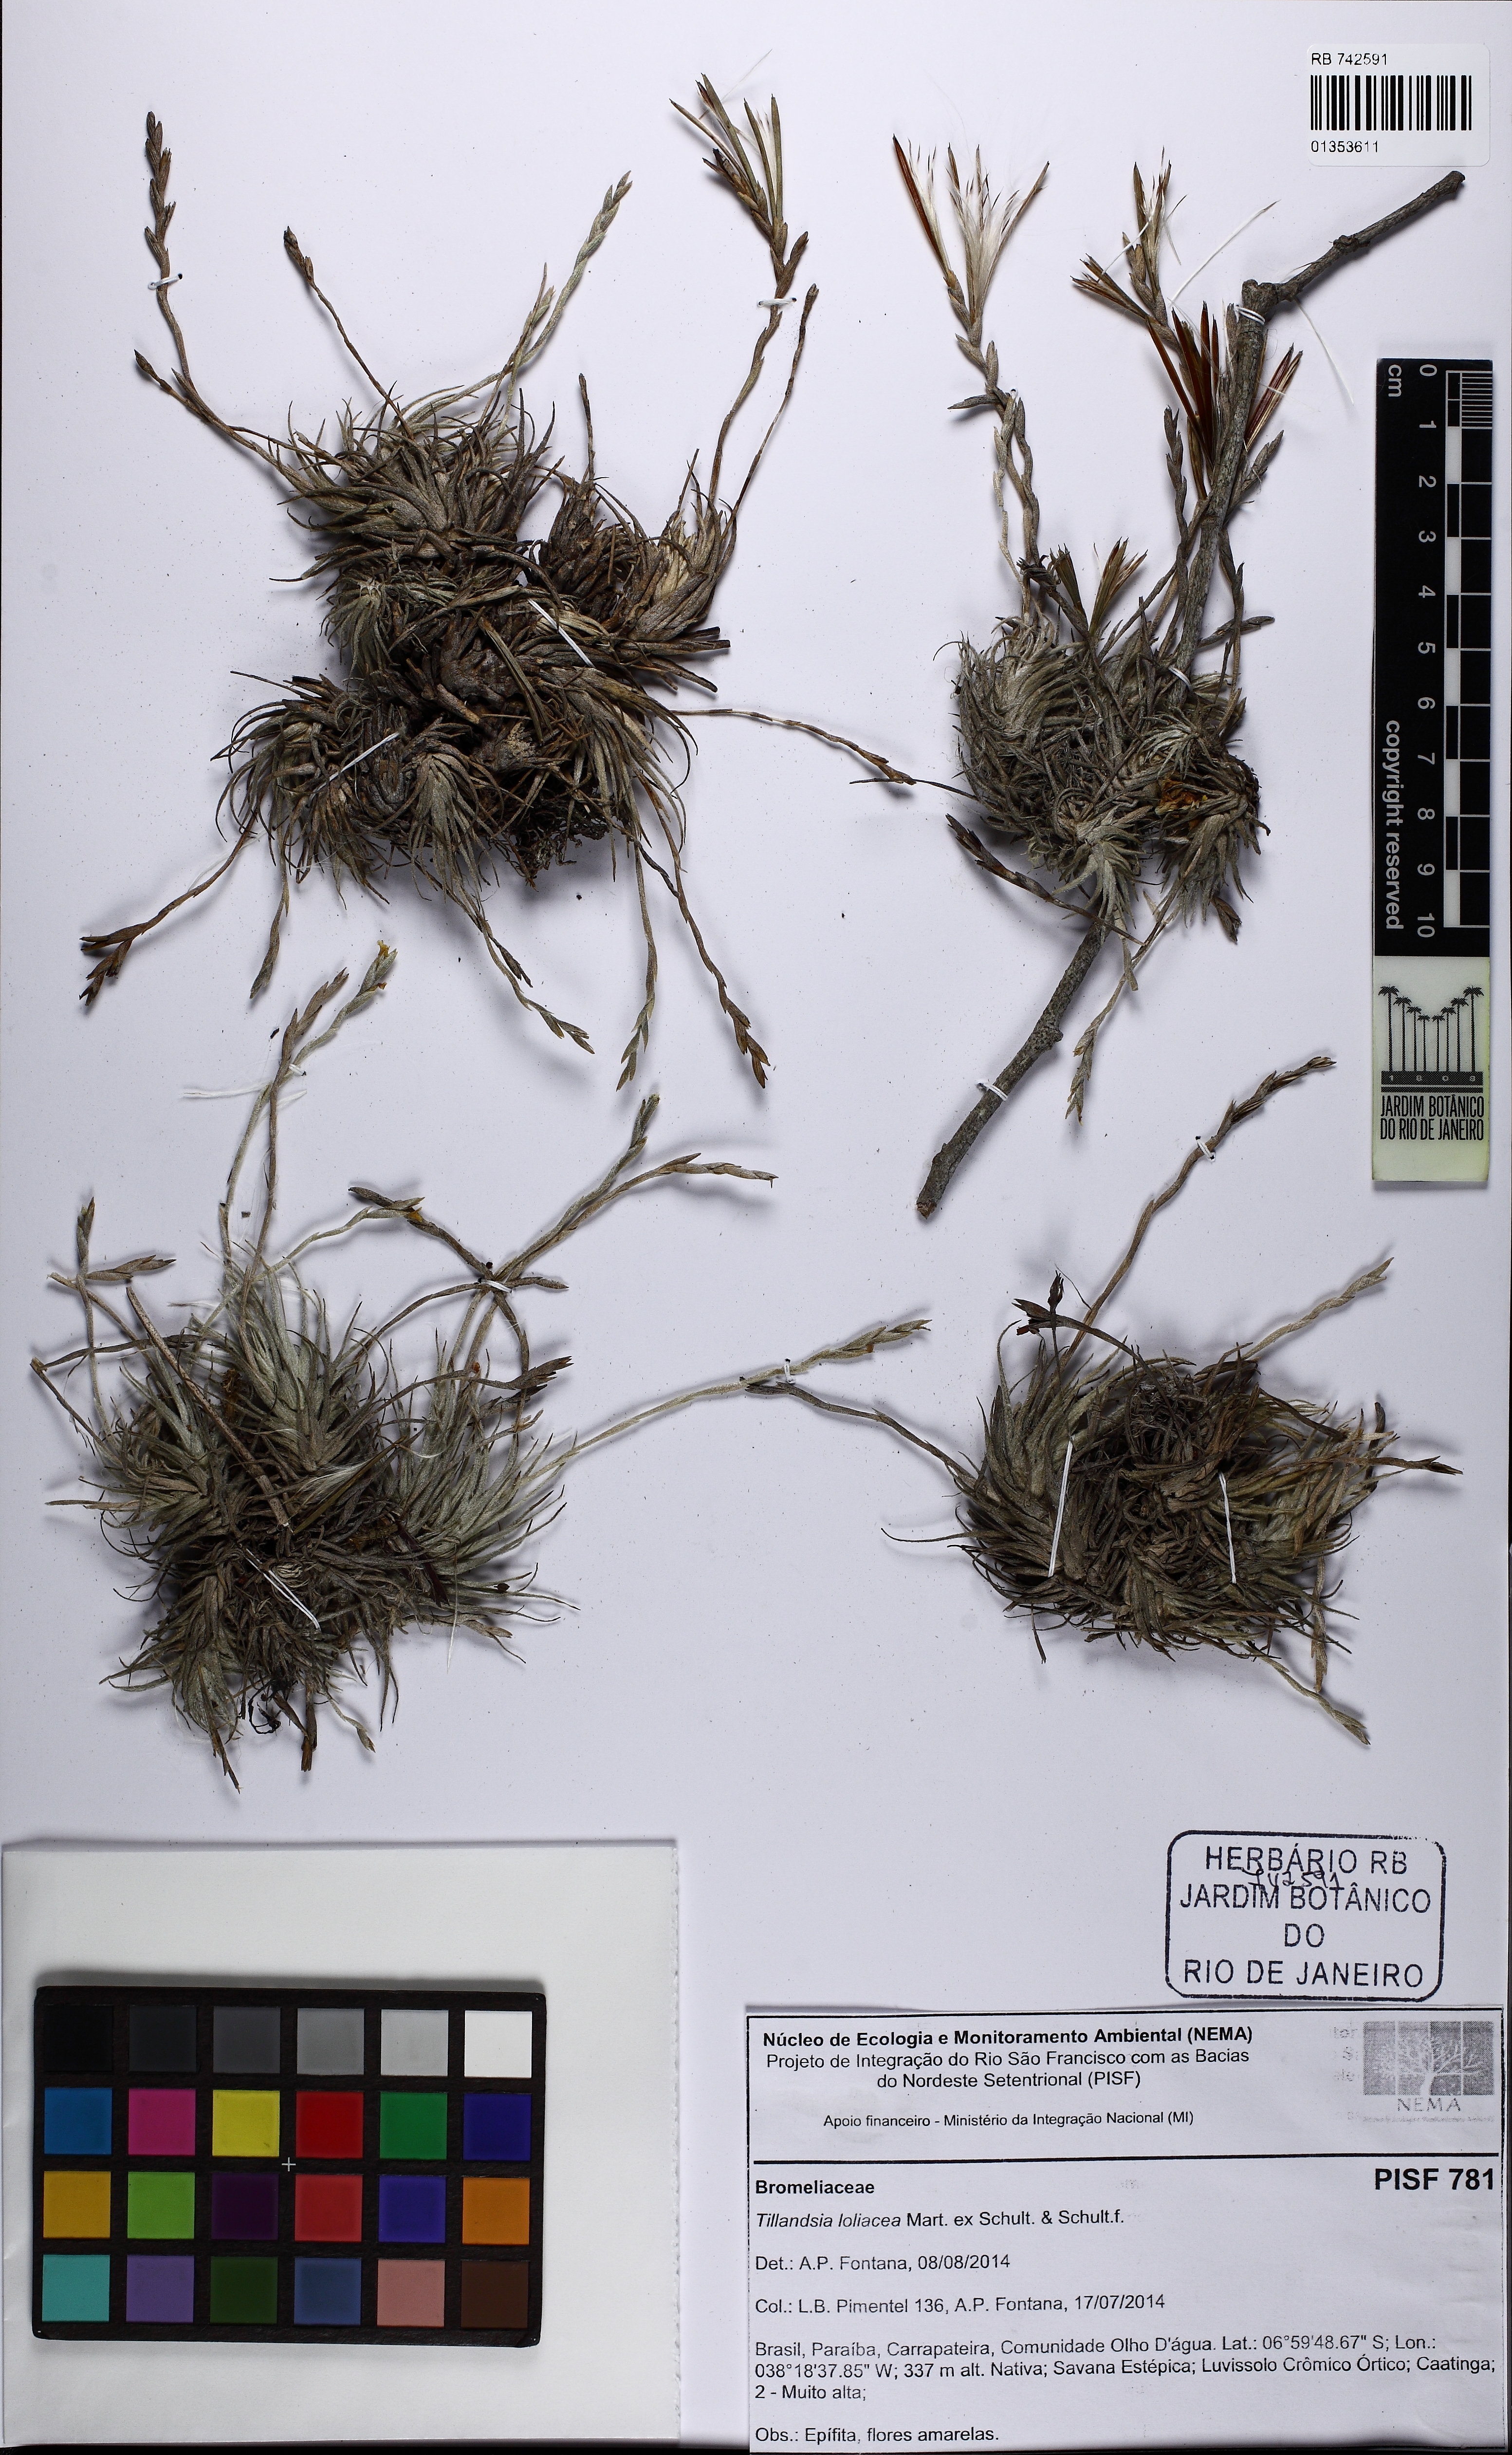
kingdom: Plantae
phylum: Tracheophyta
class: Liliopsida
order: Poales
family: Bromeliaceae
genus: Tillandsia
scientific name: Tillandsia loliacea
